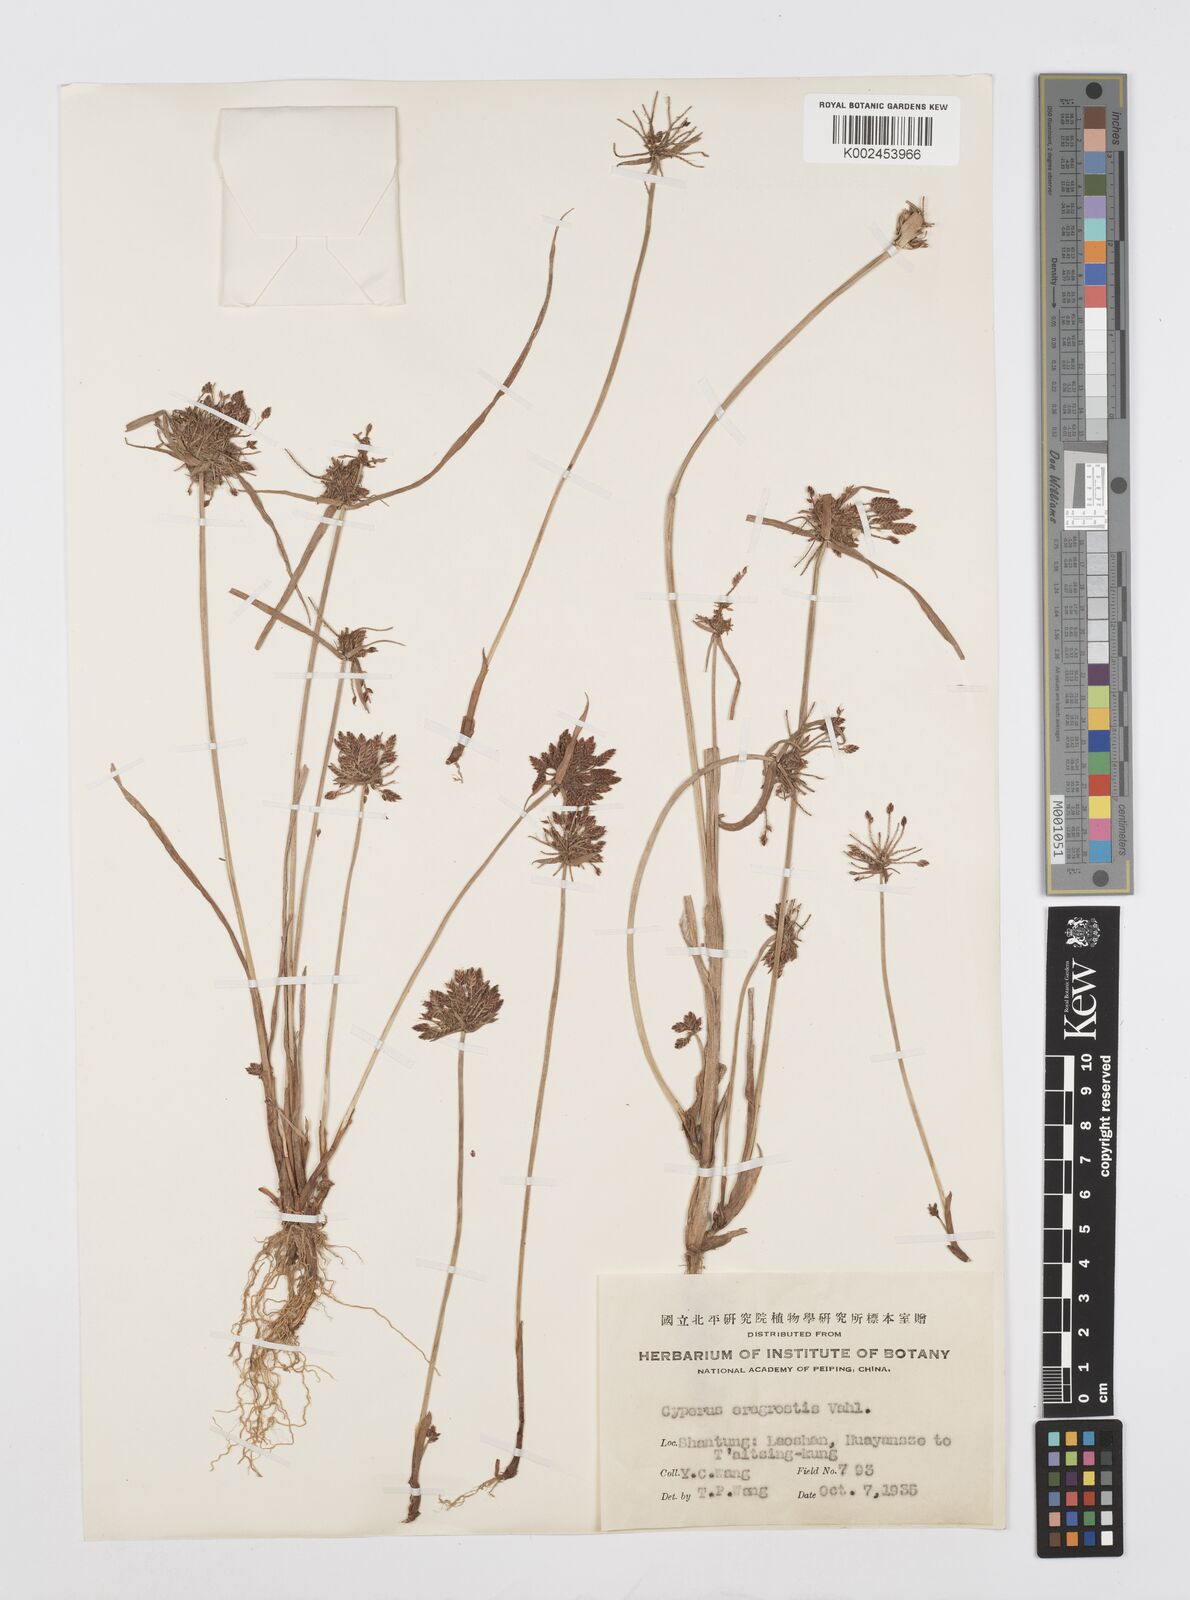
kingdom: Plantae
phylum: Tracheophyta
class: Liliopsida
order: Poales
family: Cyperaceae
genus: Cyperus
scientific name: Cyperus sanguinolentus
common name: Purpleglume flatsedge
